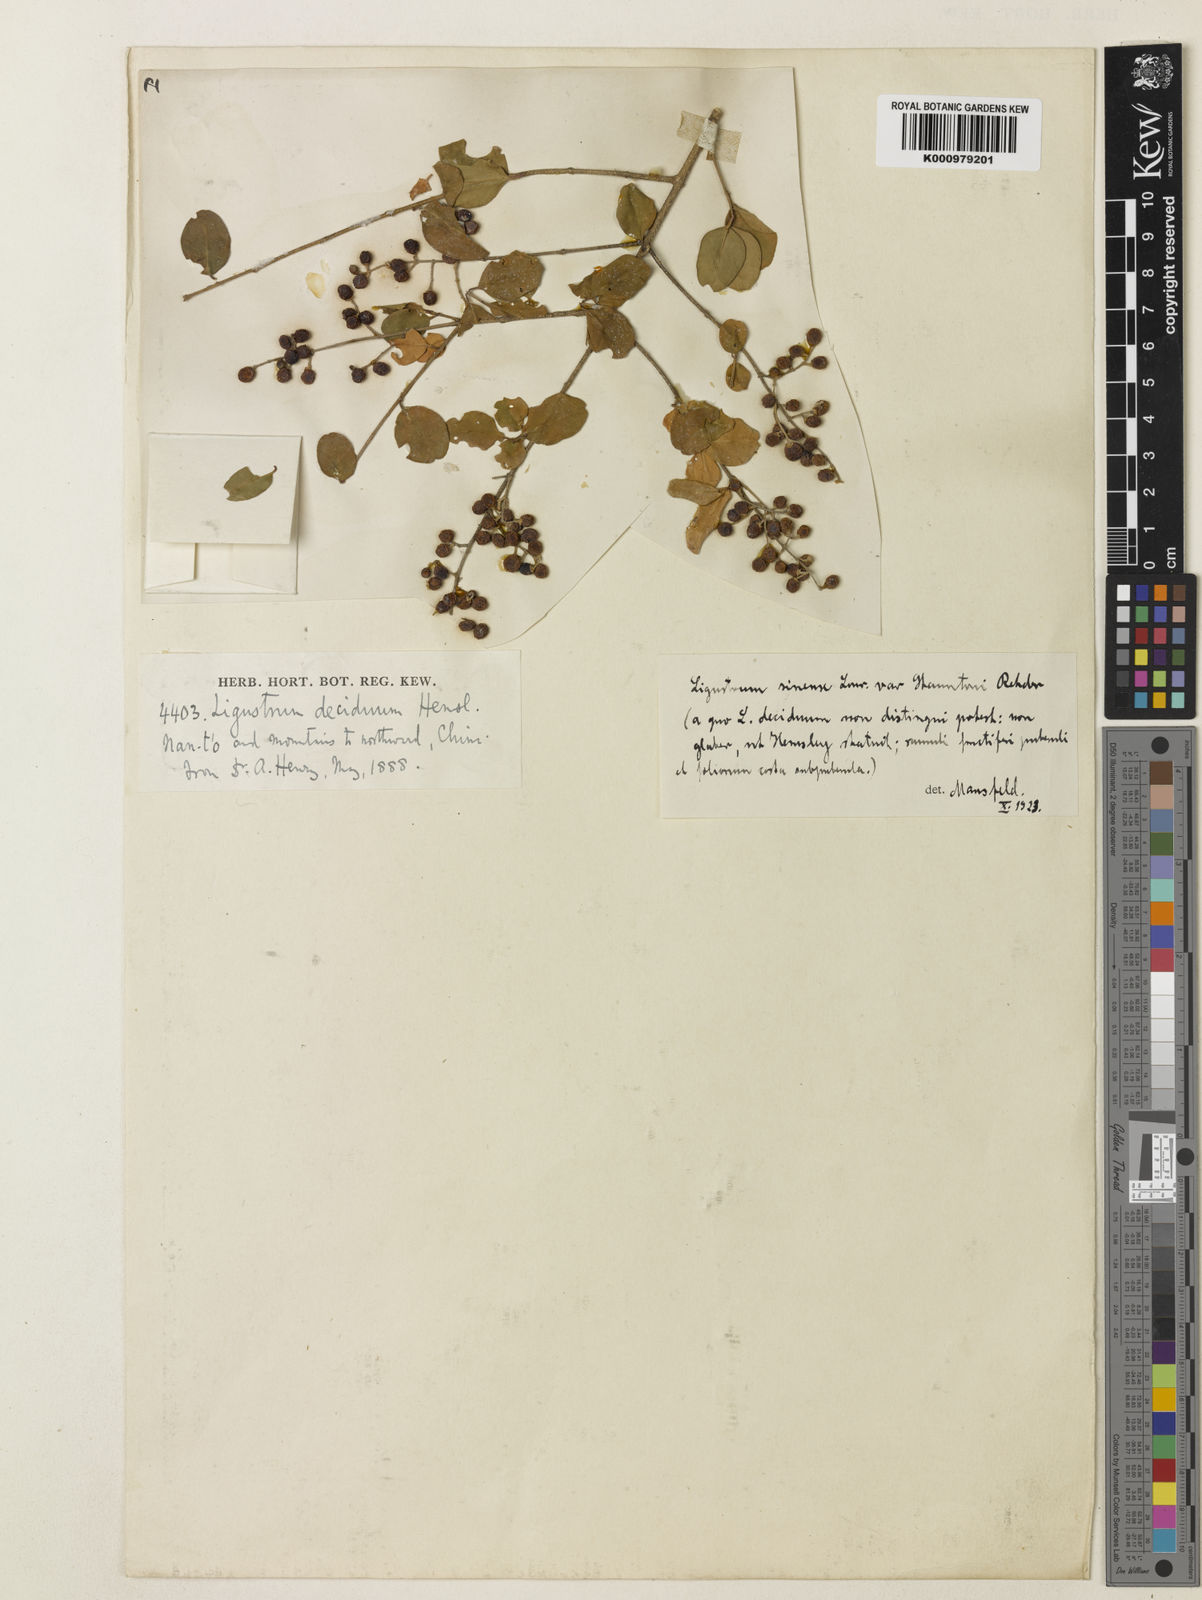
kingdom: Plantae
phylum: Tracheophyta
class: Magnoliopsida
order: Lamiales
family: Oleaceae
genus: Ligustrum
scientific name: Ligustrum sinense
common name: Chinese privet
